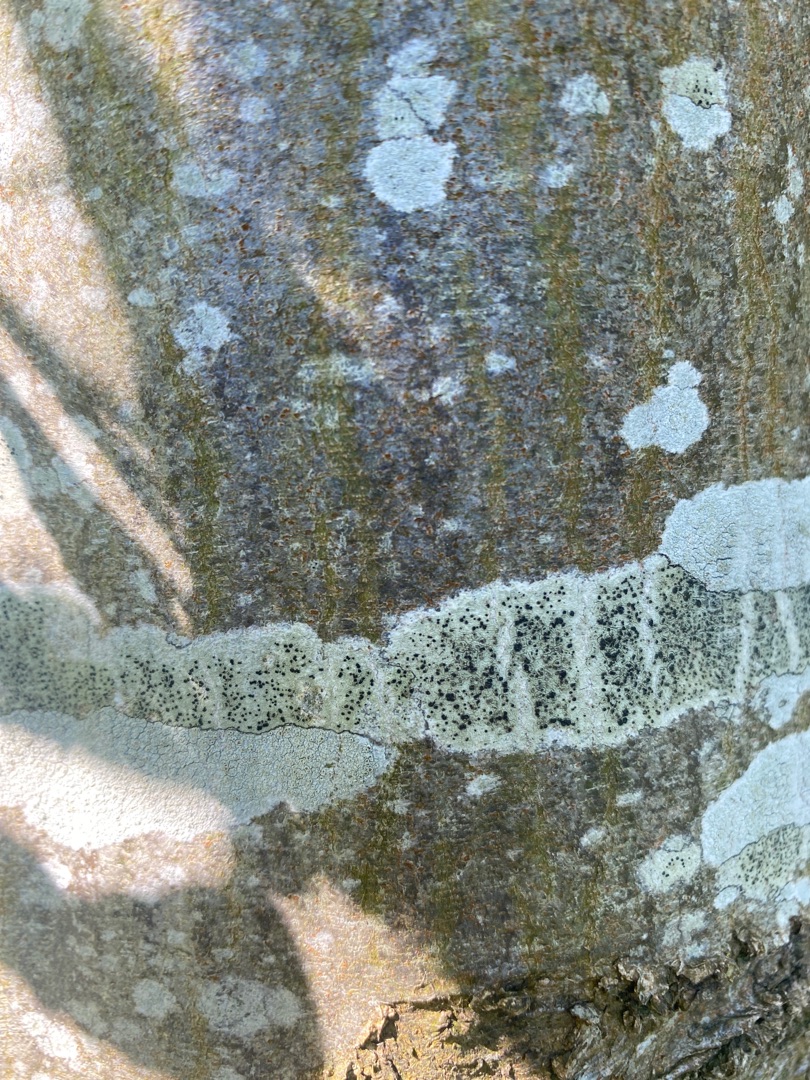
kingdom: Fungi
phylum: Ascomycota
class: Lecanoromycetes
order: Lecanorales
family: Lecanoraceae
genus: Lecidella
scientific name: Lecidella elaeochroma
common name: Grågrøn skivelav
